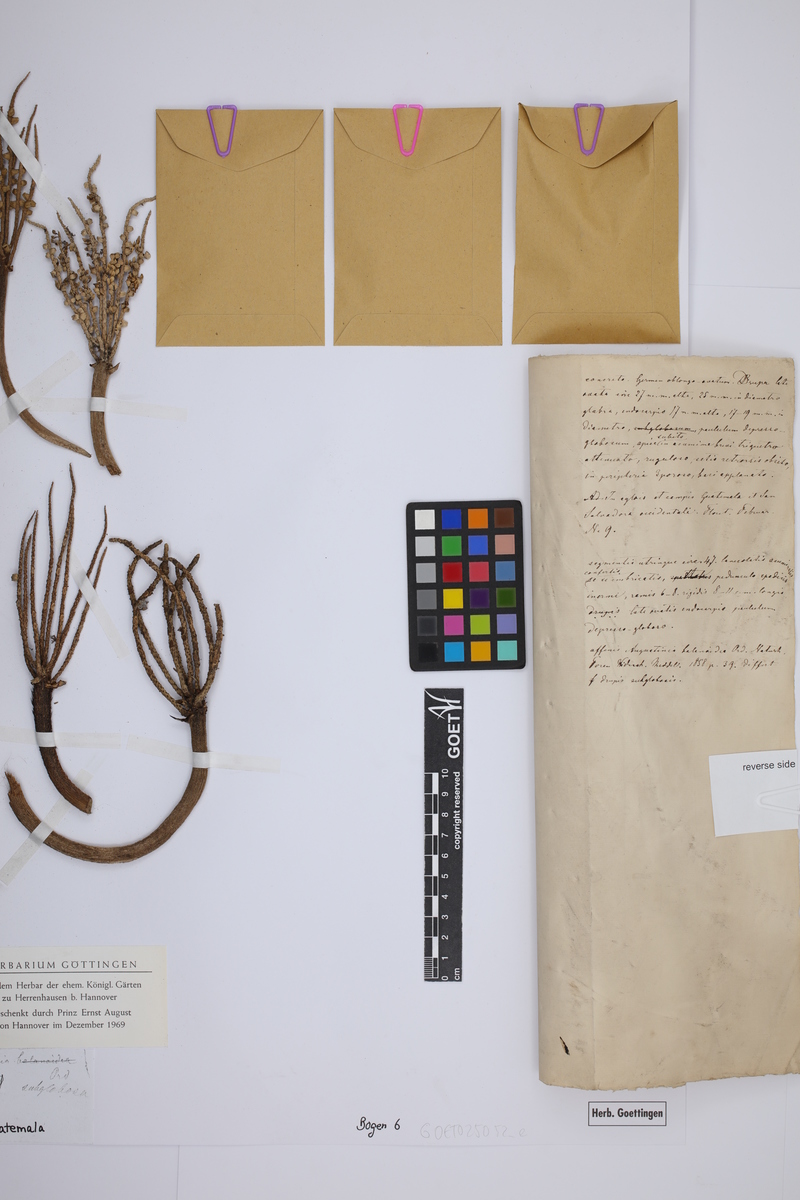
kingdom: Plantae
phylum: Tracheophyta
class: Liliopsida
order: Arecales
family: Arecaceae
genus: Bactris
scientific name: Bactris major
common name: Beach palm
